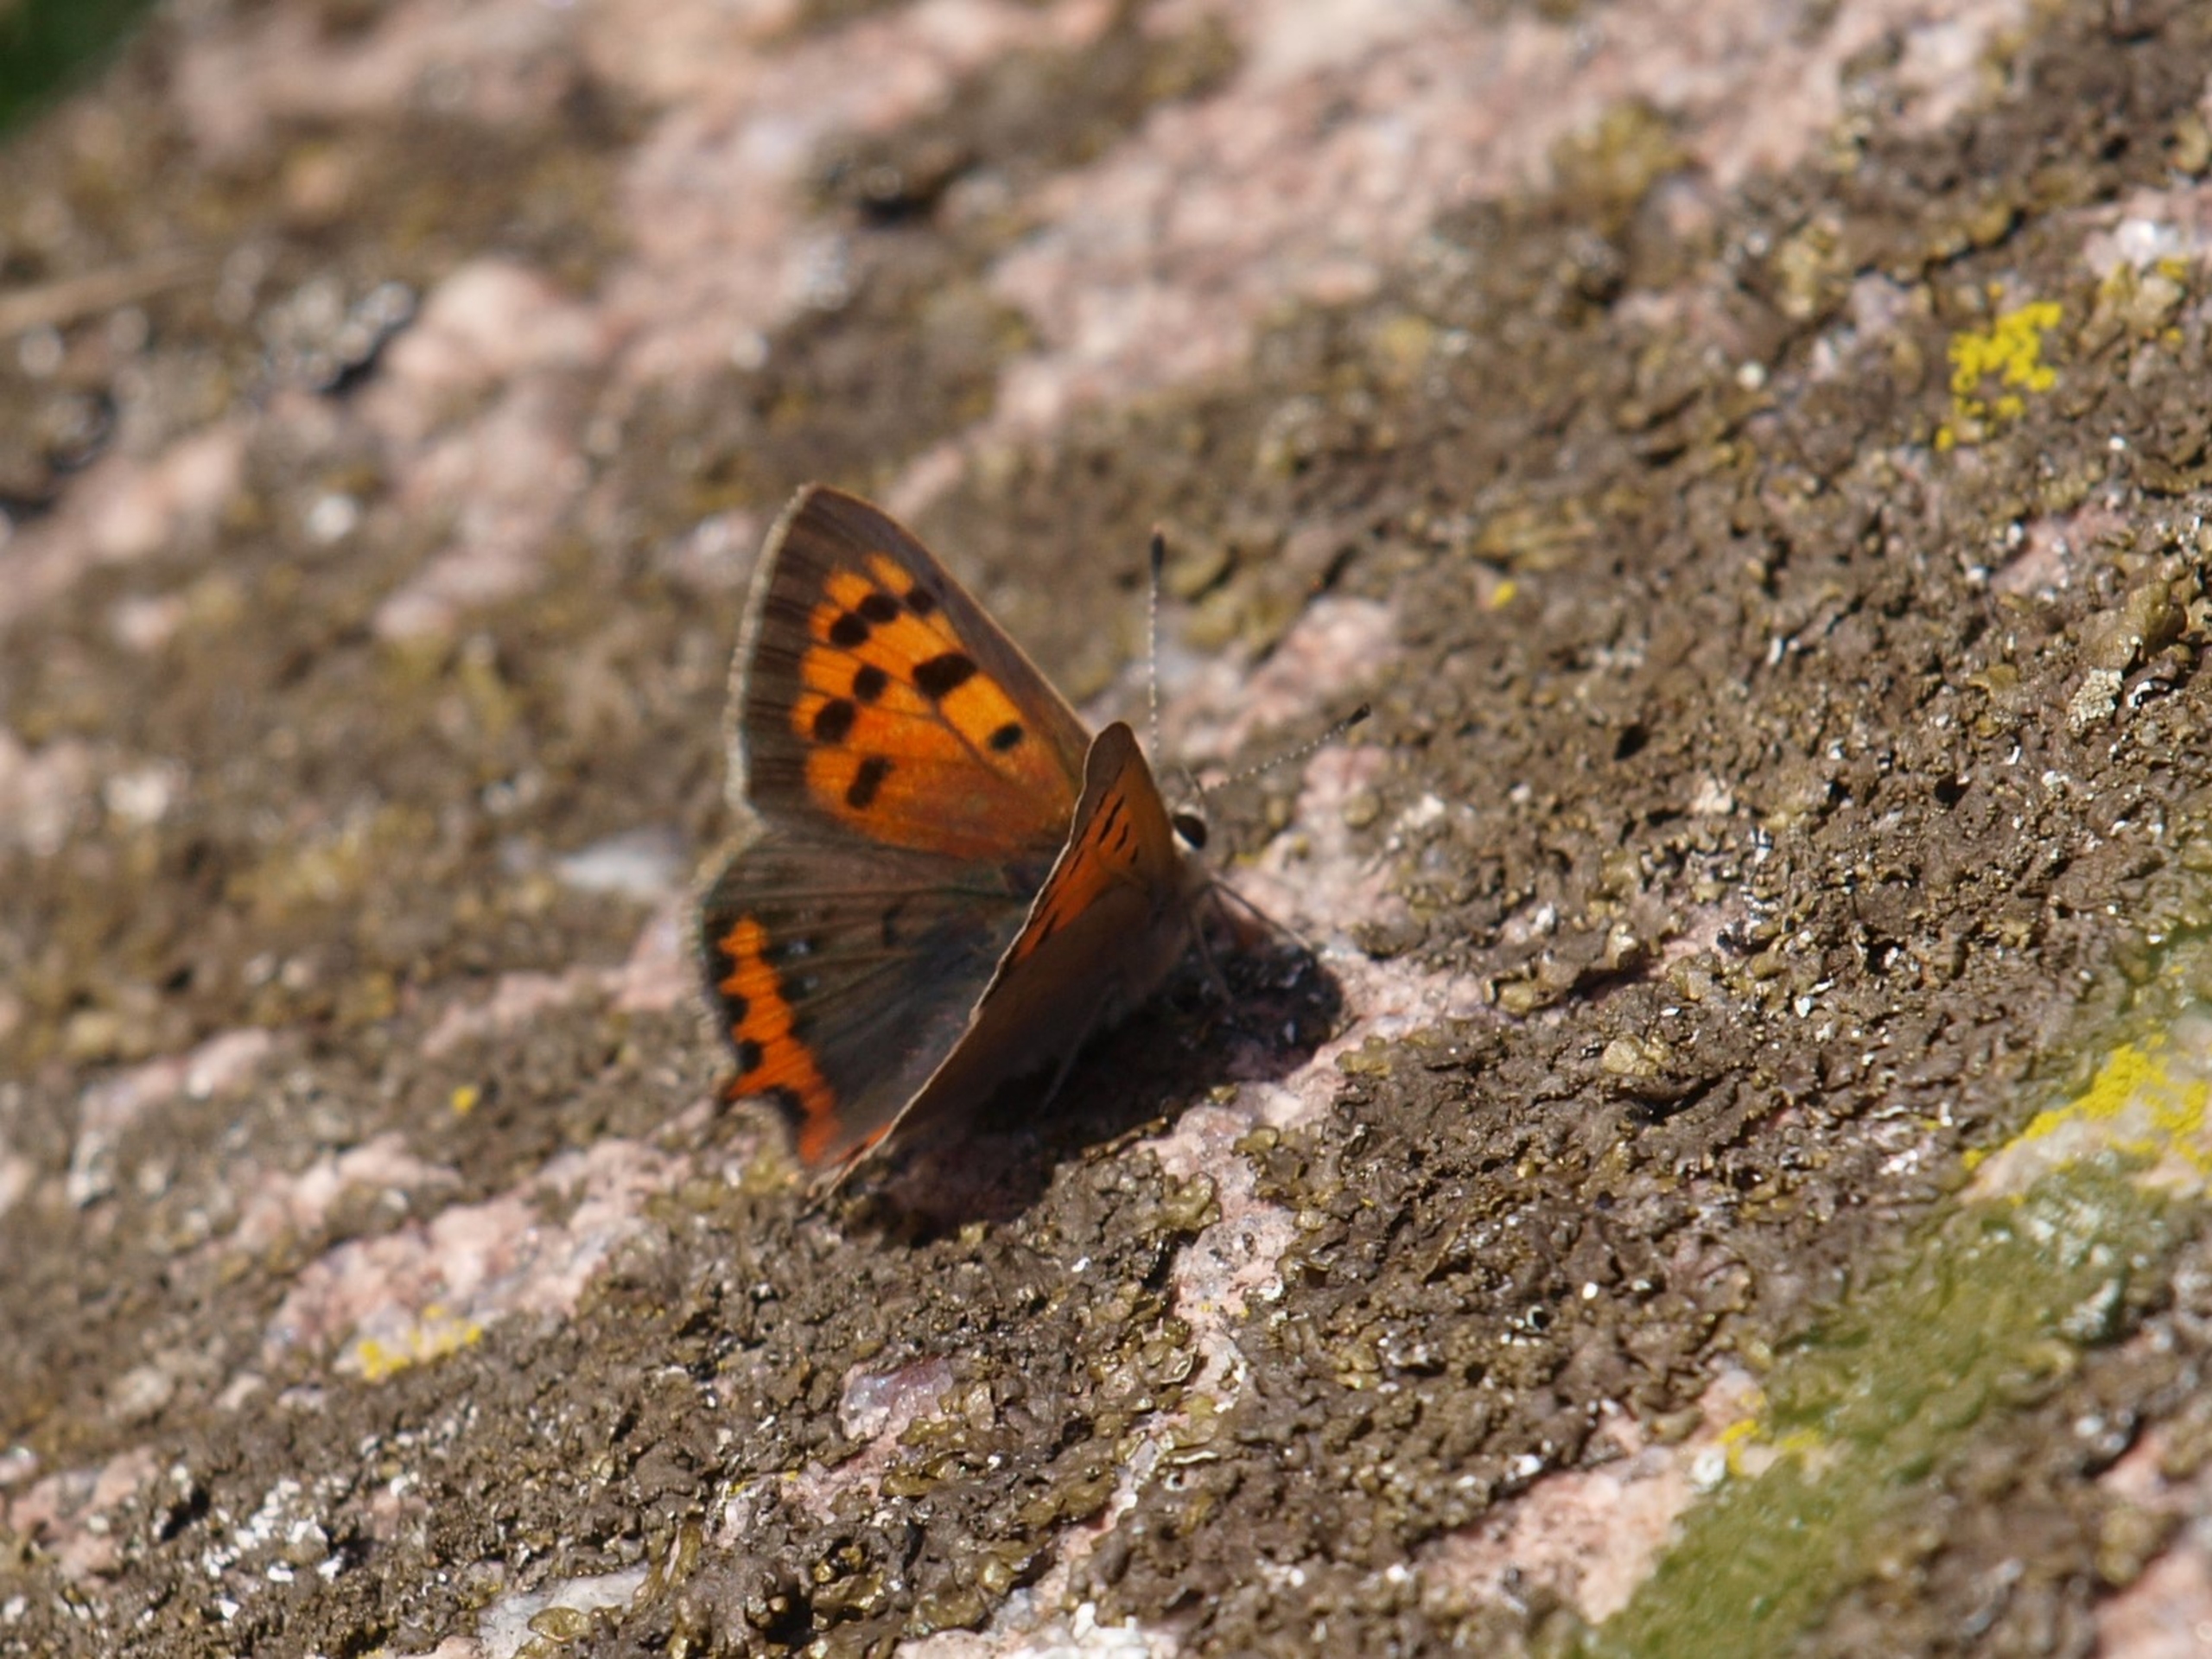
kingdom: Animalia
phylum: Arthropoda
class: Insecta
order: Lepidoptera
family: Lycaenidae
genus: Lycaena
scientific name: Lycaena phlaeas
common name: Lille ildfugl
